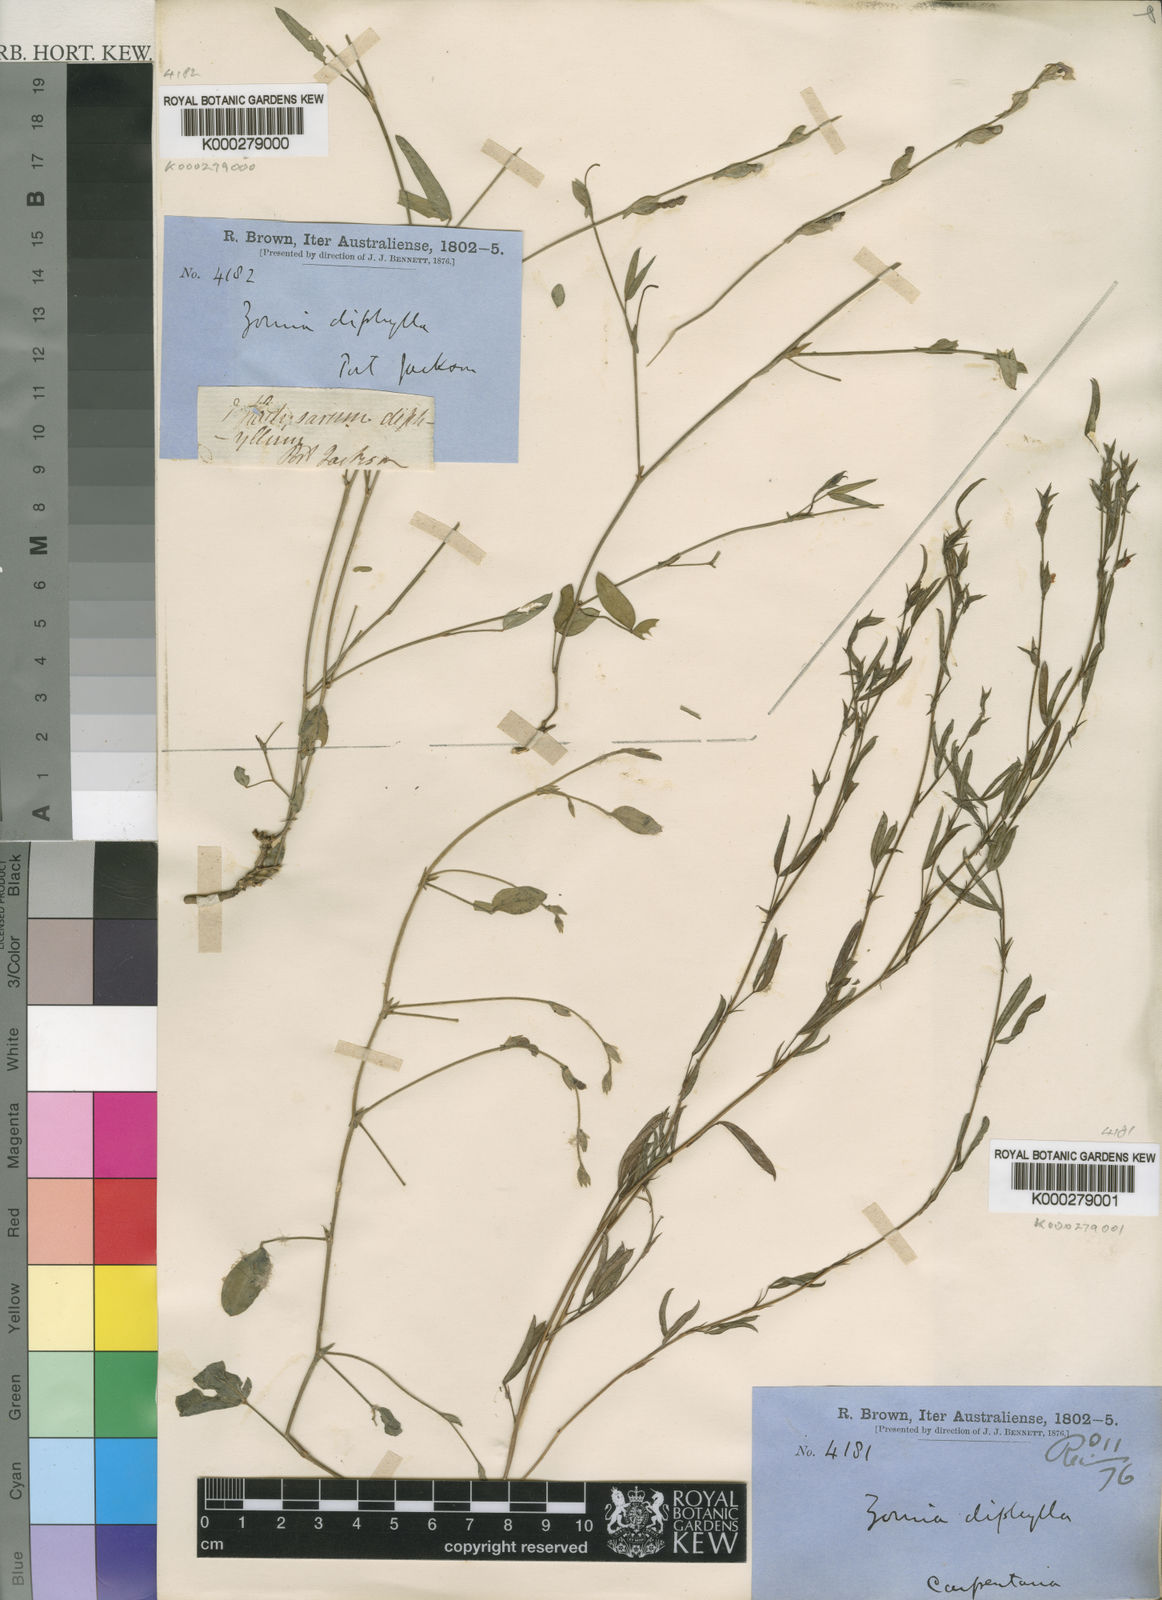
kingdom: Plantae
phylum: Tracheophyta
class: Magnoliopsida
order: Fabales
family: Fabaceae
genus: Zornia
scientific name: Zornia diphylla
